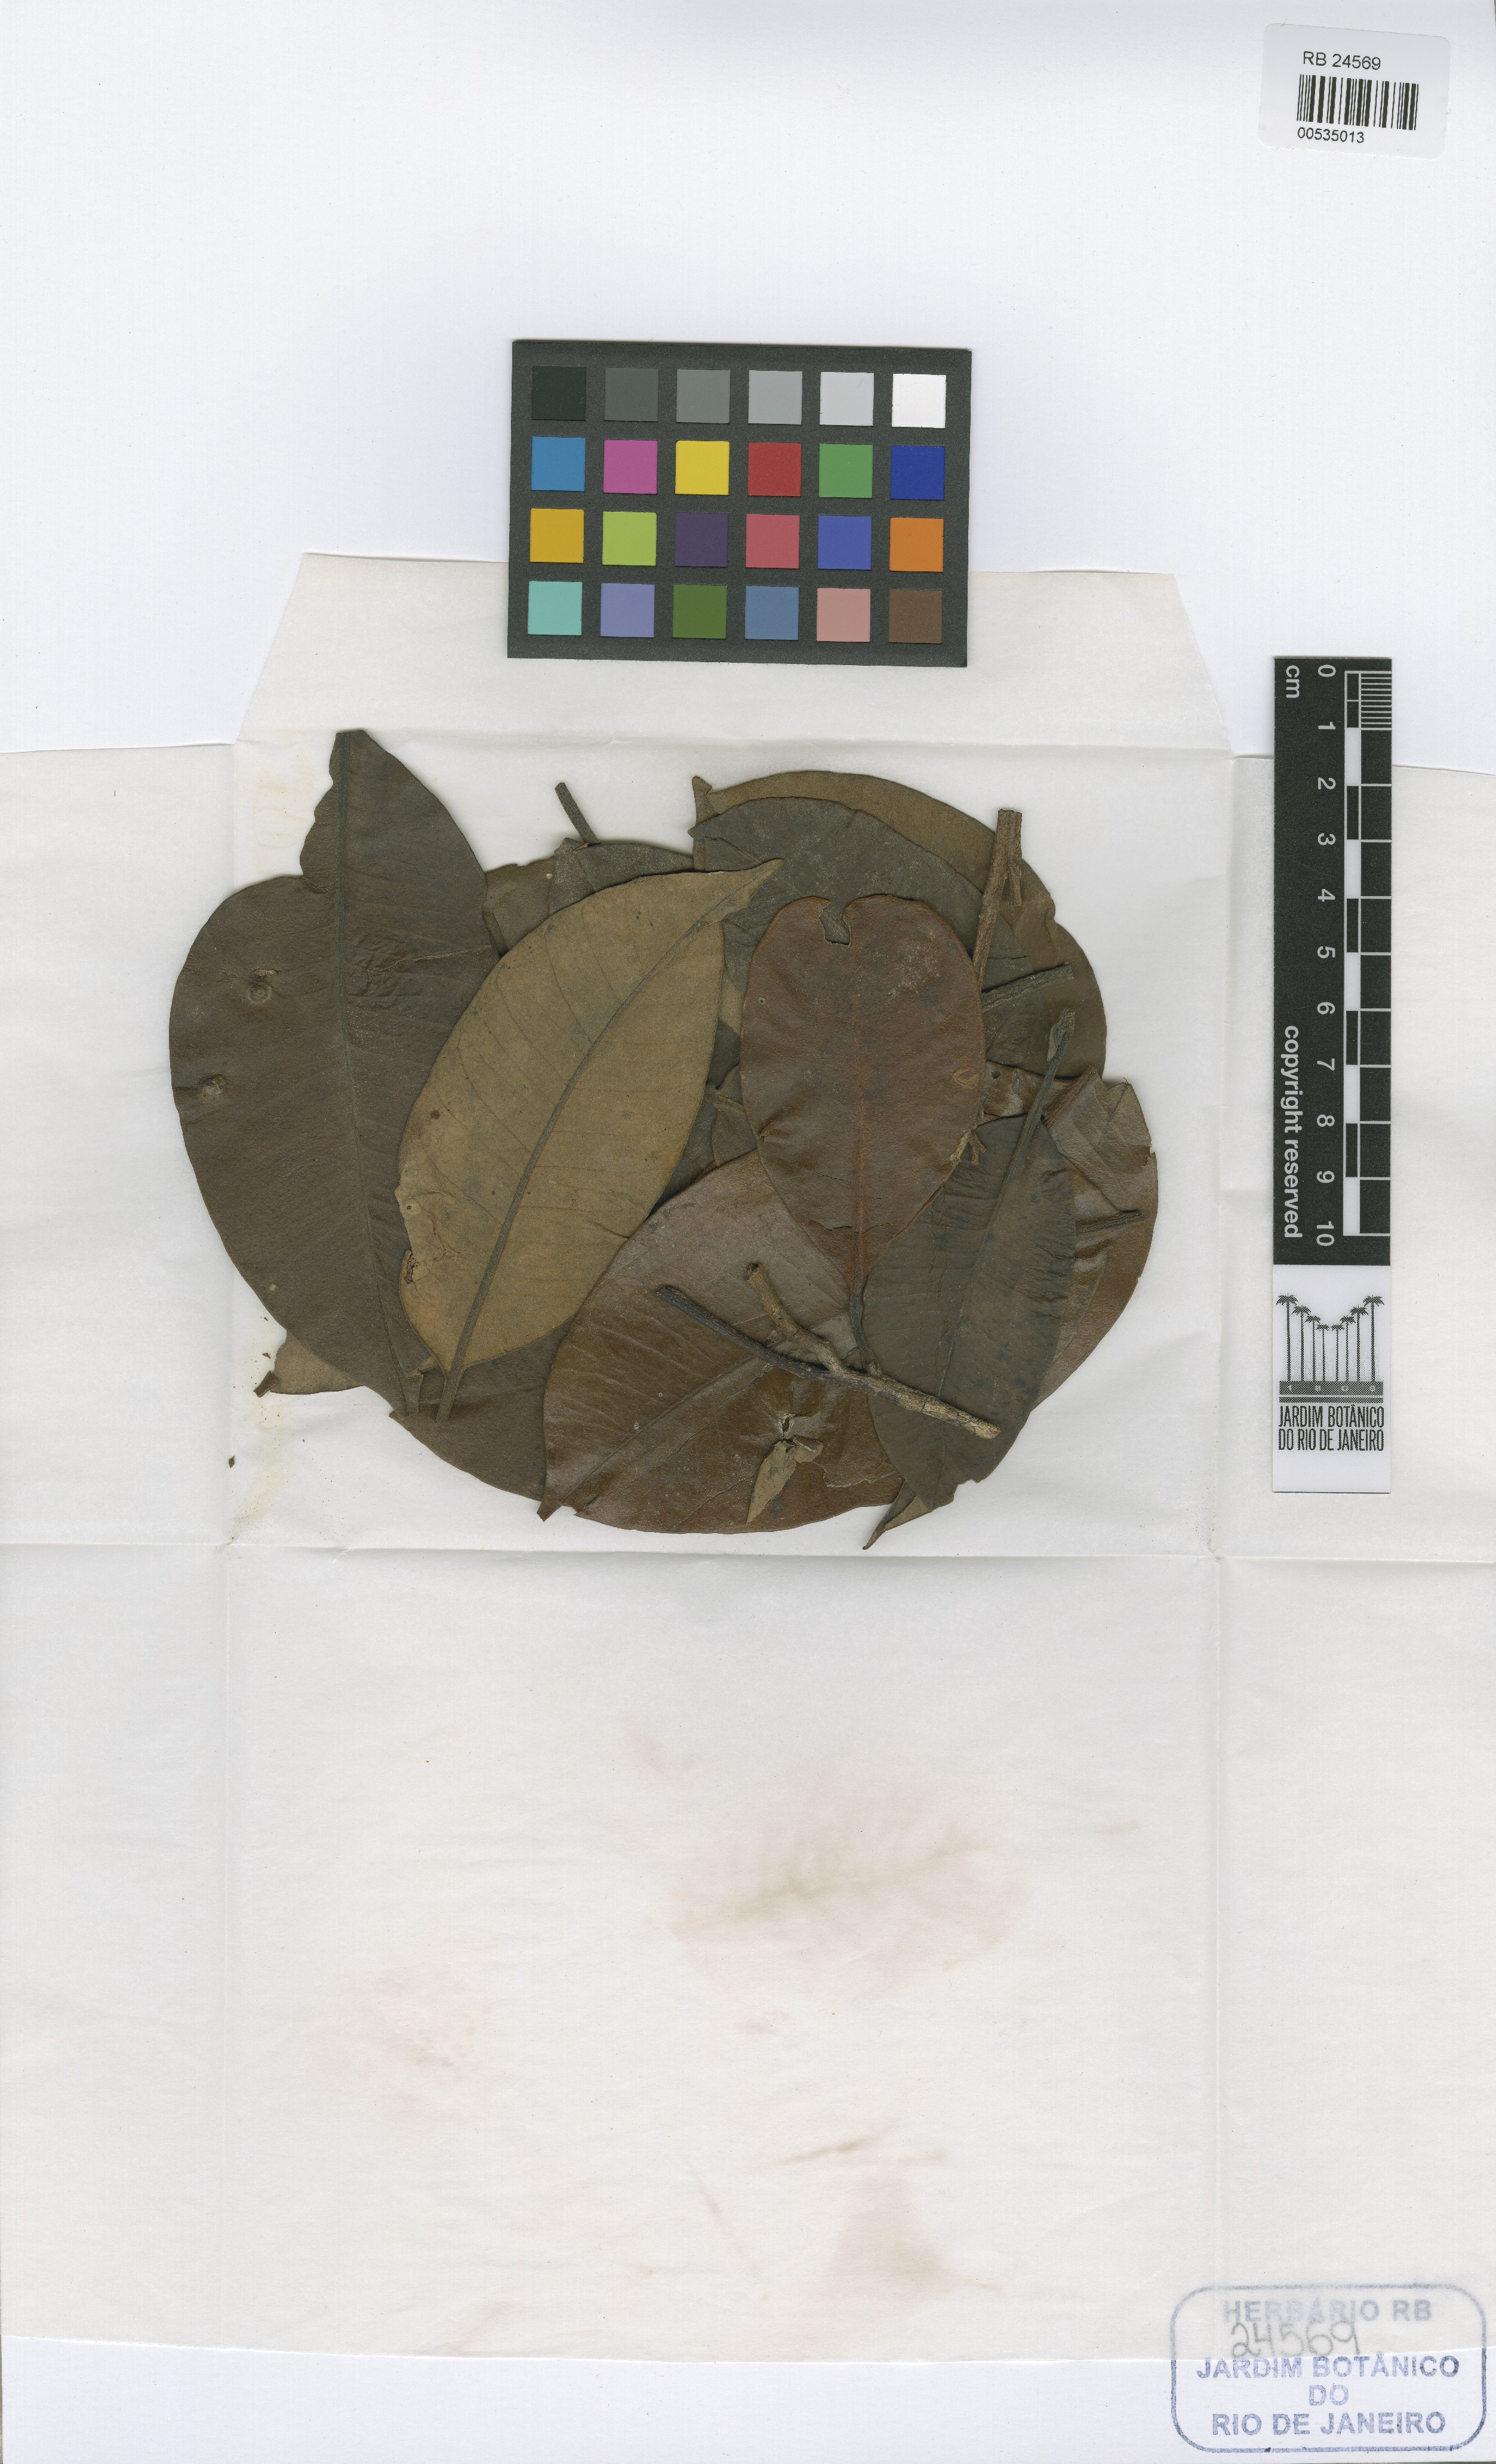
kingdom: Plantae
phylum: Tracheophyta
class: Magnoliopsida
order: Gentianales
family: Apocynaceae
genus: Aspidosperma
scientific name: Aspidosperma inundatum
